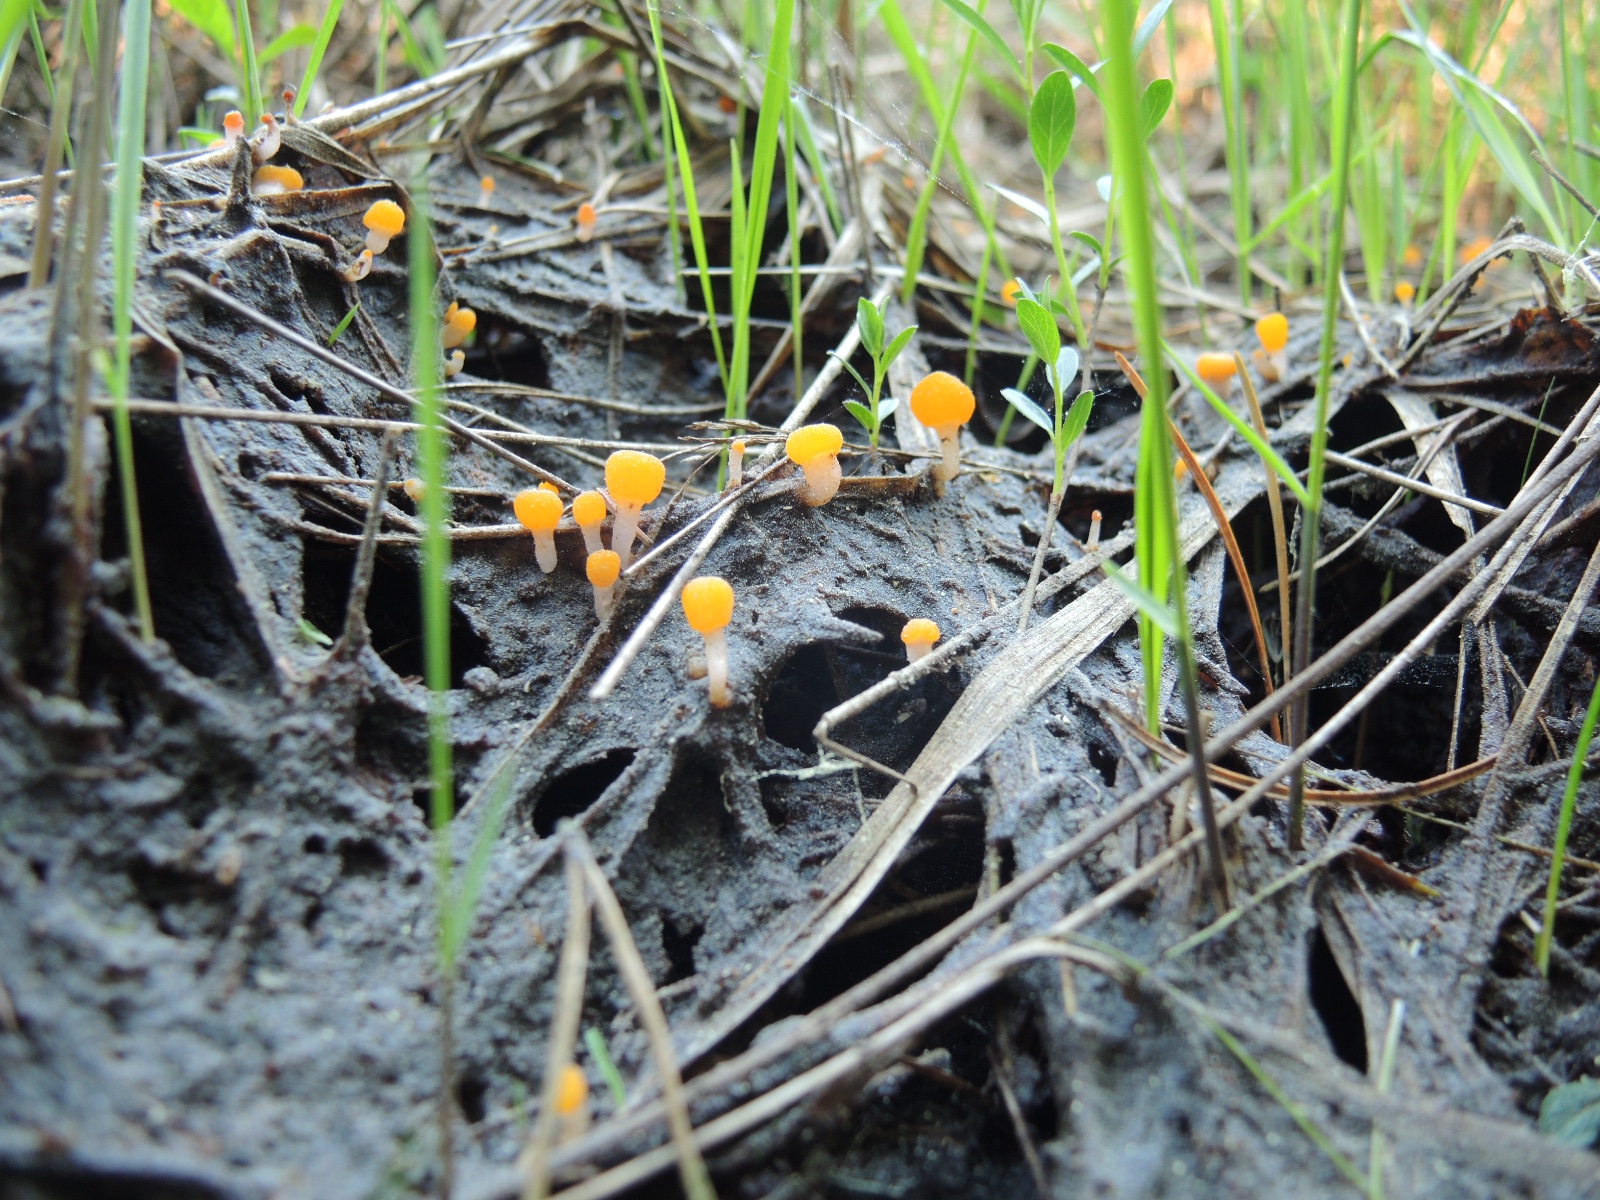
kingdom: Fungi
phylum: Ascomycota
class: Leotiomycetes
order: Helotiales
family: Cenangiaceae
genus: Mitrula
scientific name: Mitrula paludosa
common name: gul nøkketunge
